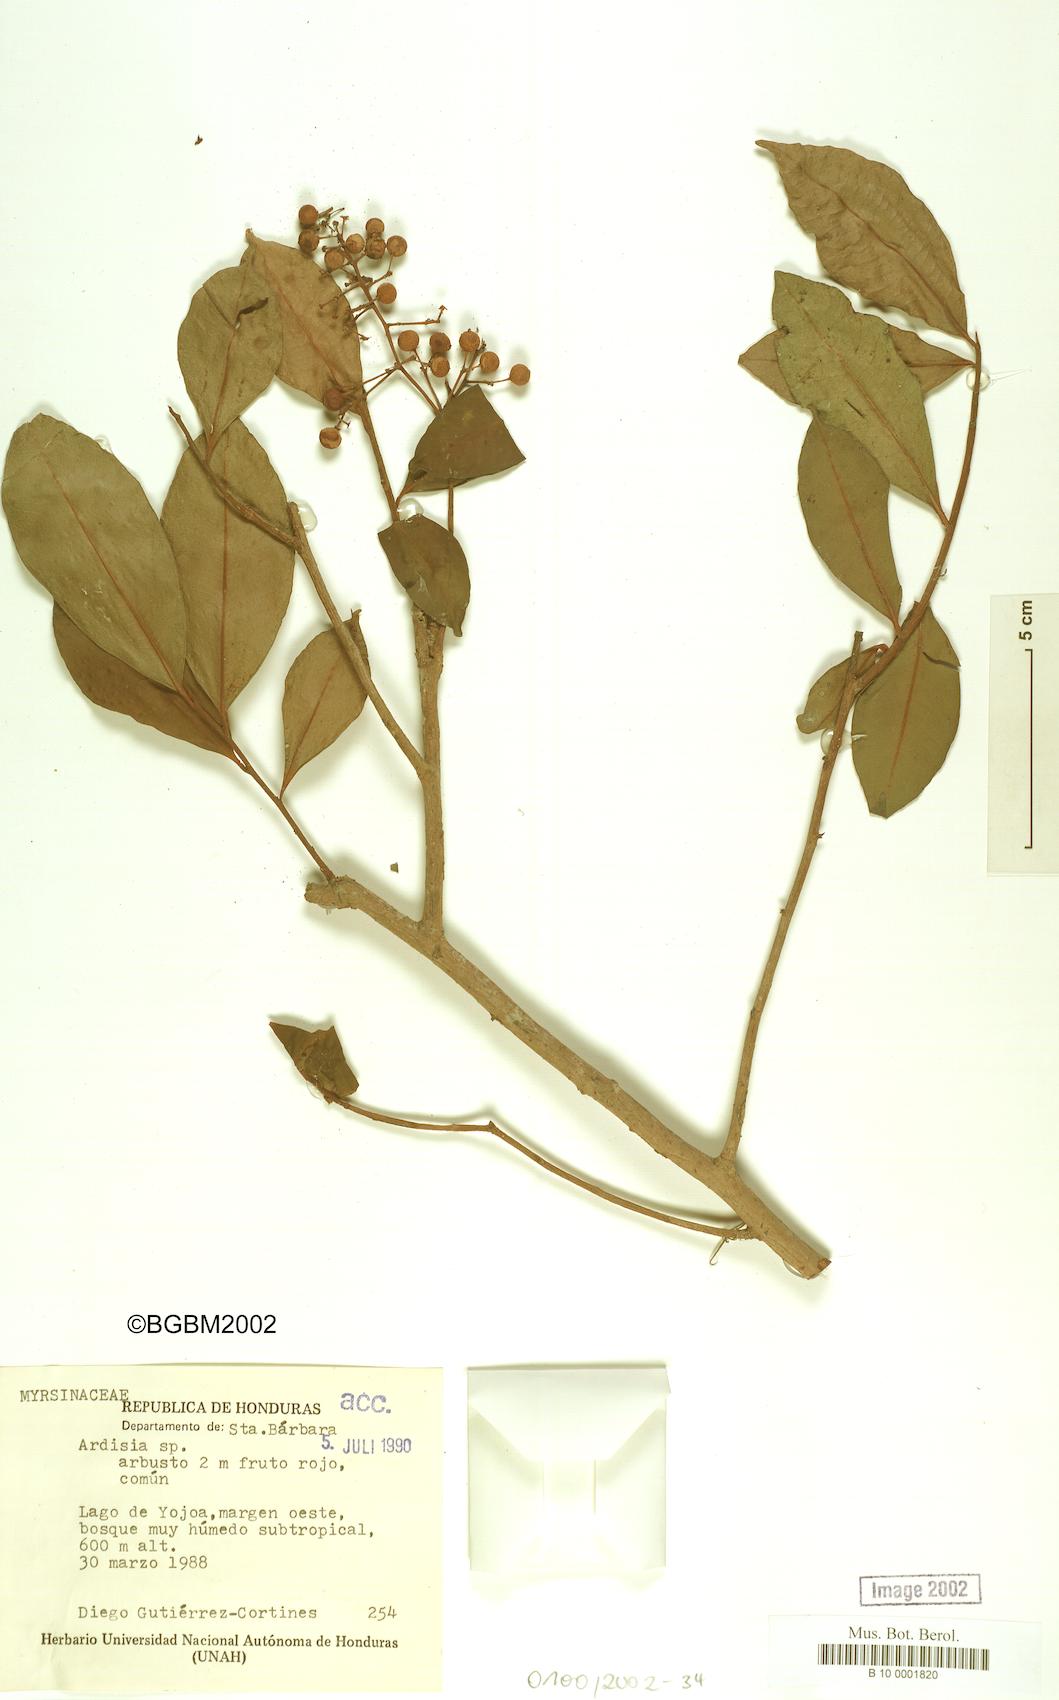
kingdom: Plantae
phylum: Tracheophyta
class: Magnoliopsida
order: Ericales
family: Primulaceae
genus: Ardisia
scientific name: Ardisia
